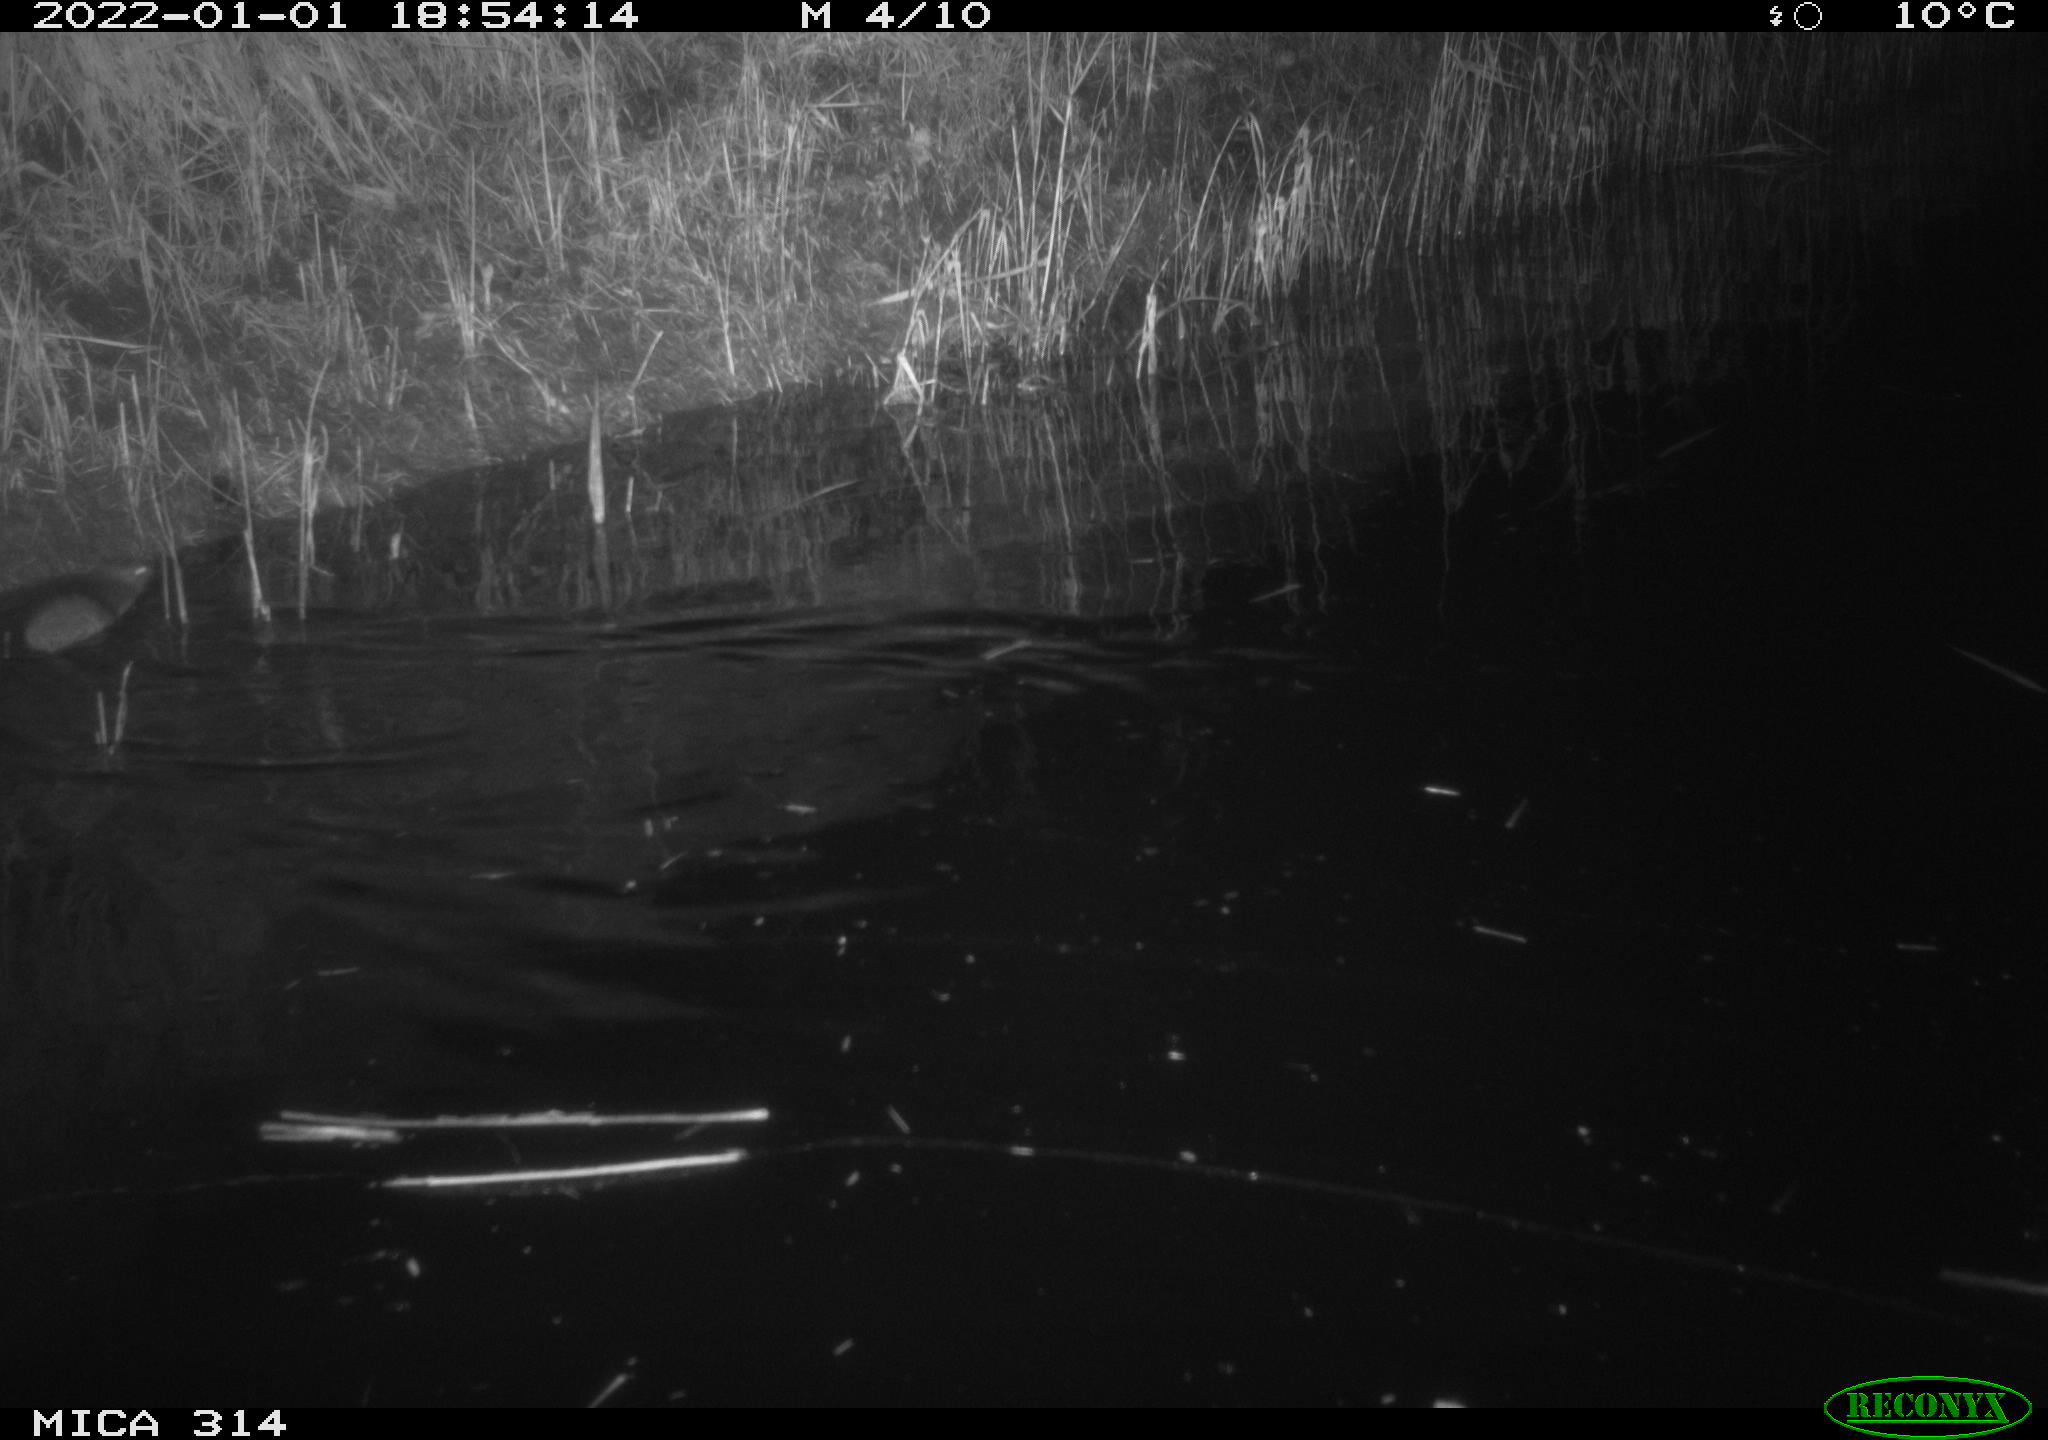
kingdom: Animalia
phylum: Chordata
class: Mammalia
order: Rodentia
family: Muridae
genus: Rattus
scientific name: Rattus norvegicus
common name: Brown rat
